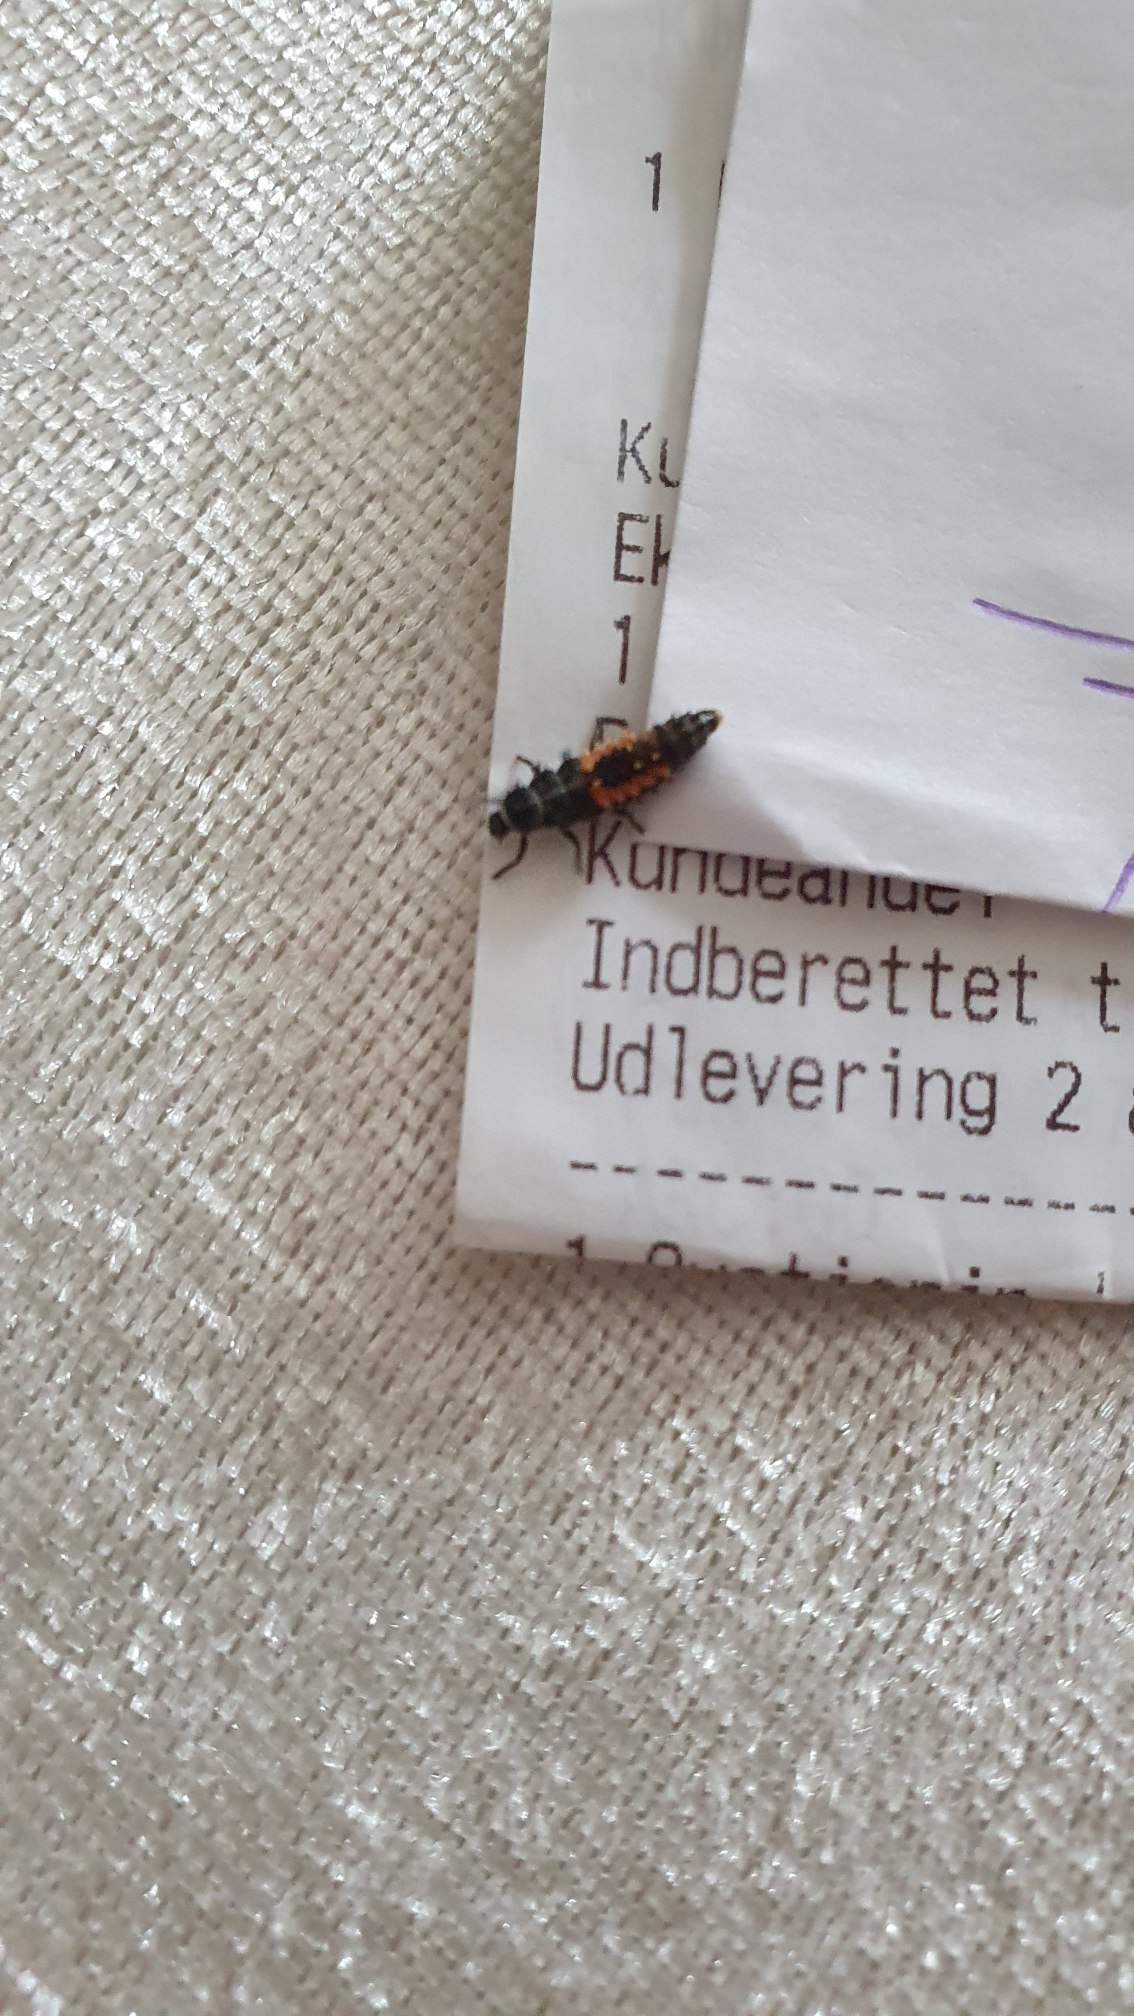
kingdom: Animalia
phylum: Arthropoda
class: Insecta
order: Coleoptera
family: Coccinellidae
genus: Harmonia
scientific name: Harmonia axyridis
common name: Harlekinmariehøne
